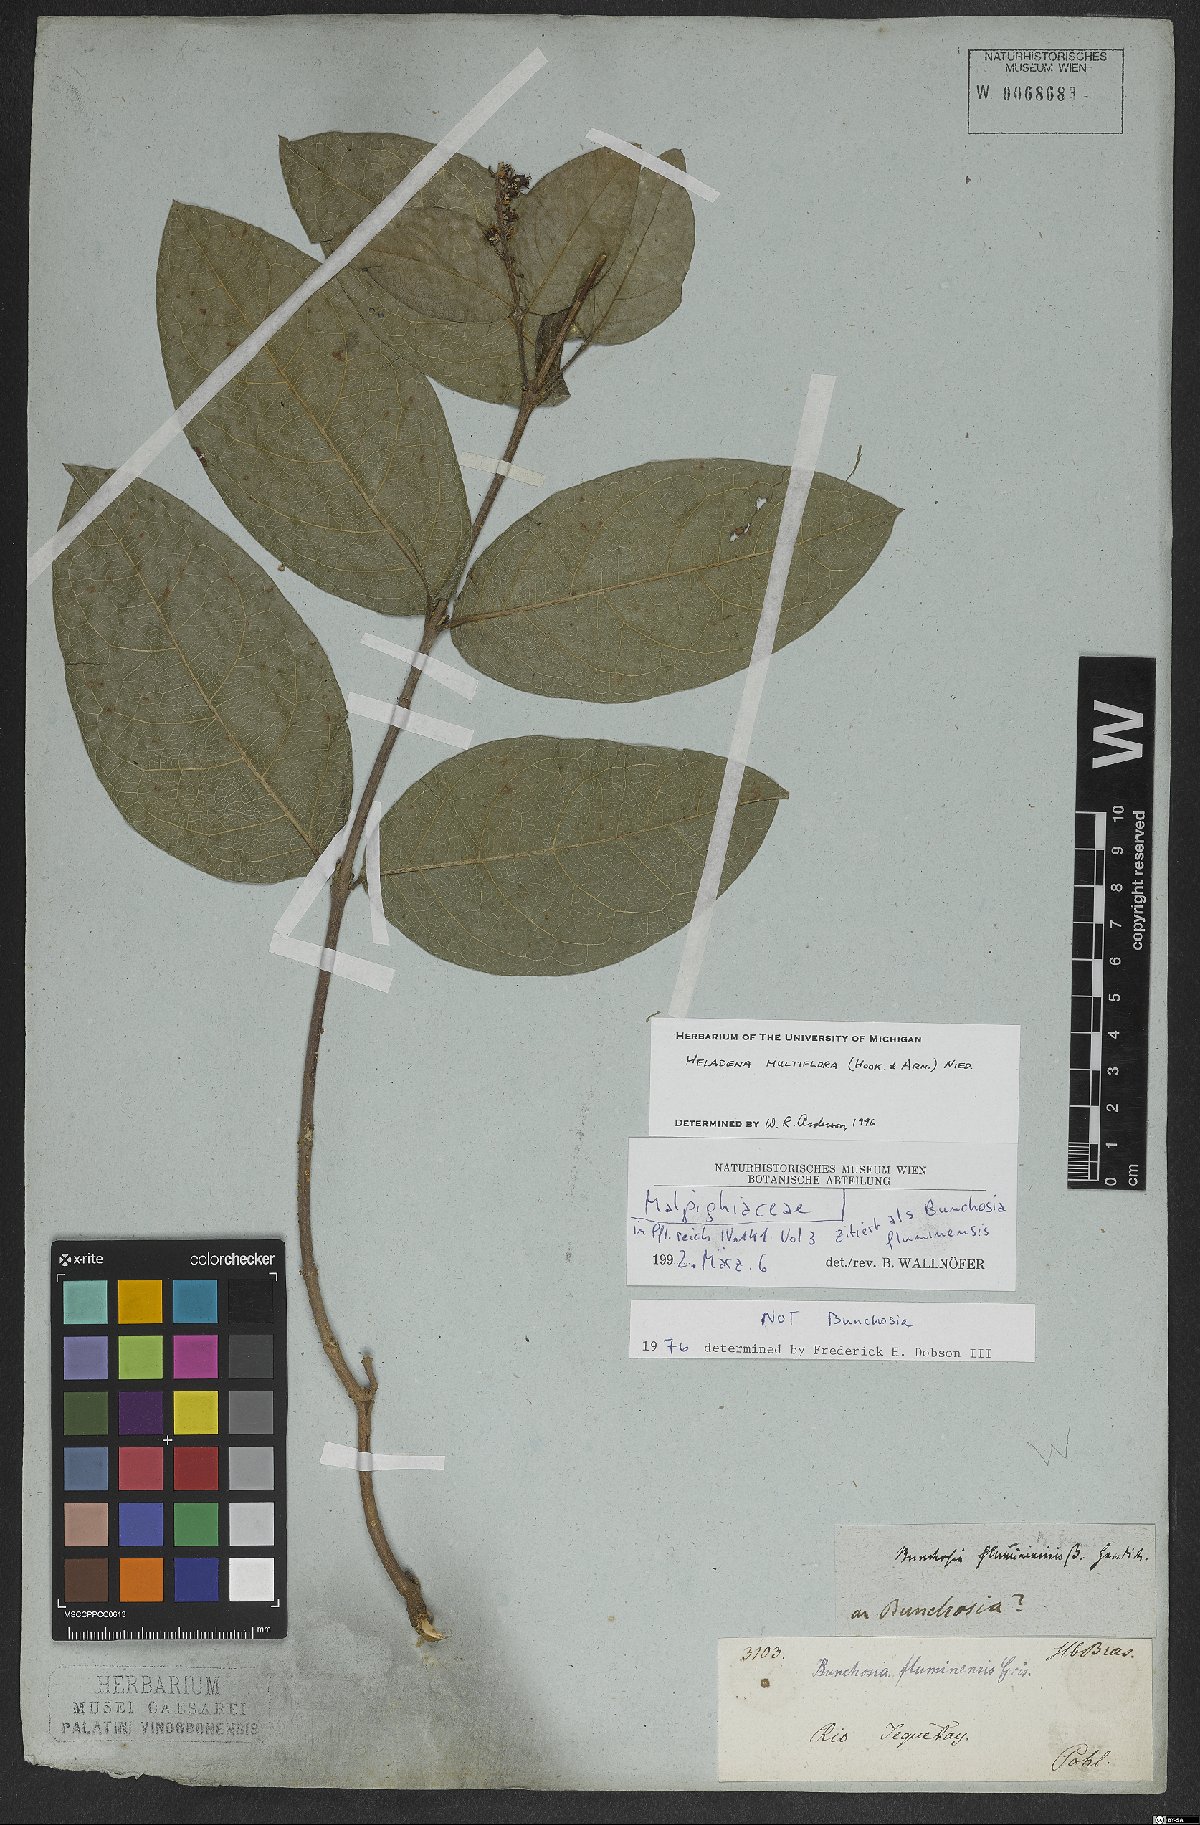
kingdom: Plantae
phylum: Tracheophyta
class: Magnoliopsida
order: Malpighiales
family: Malpighiaceae
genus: Heladena
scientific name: Heladena multiflora
